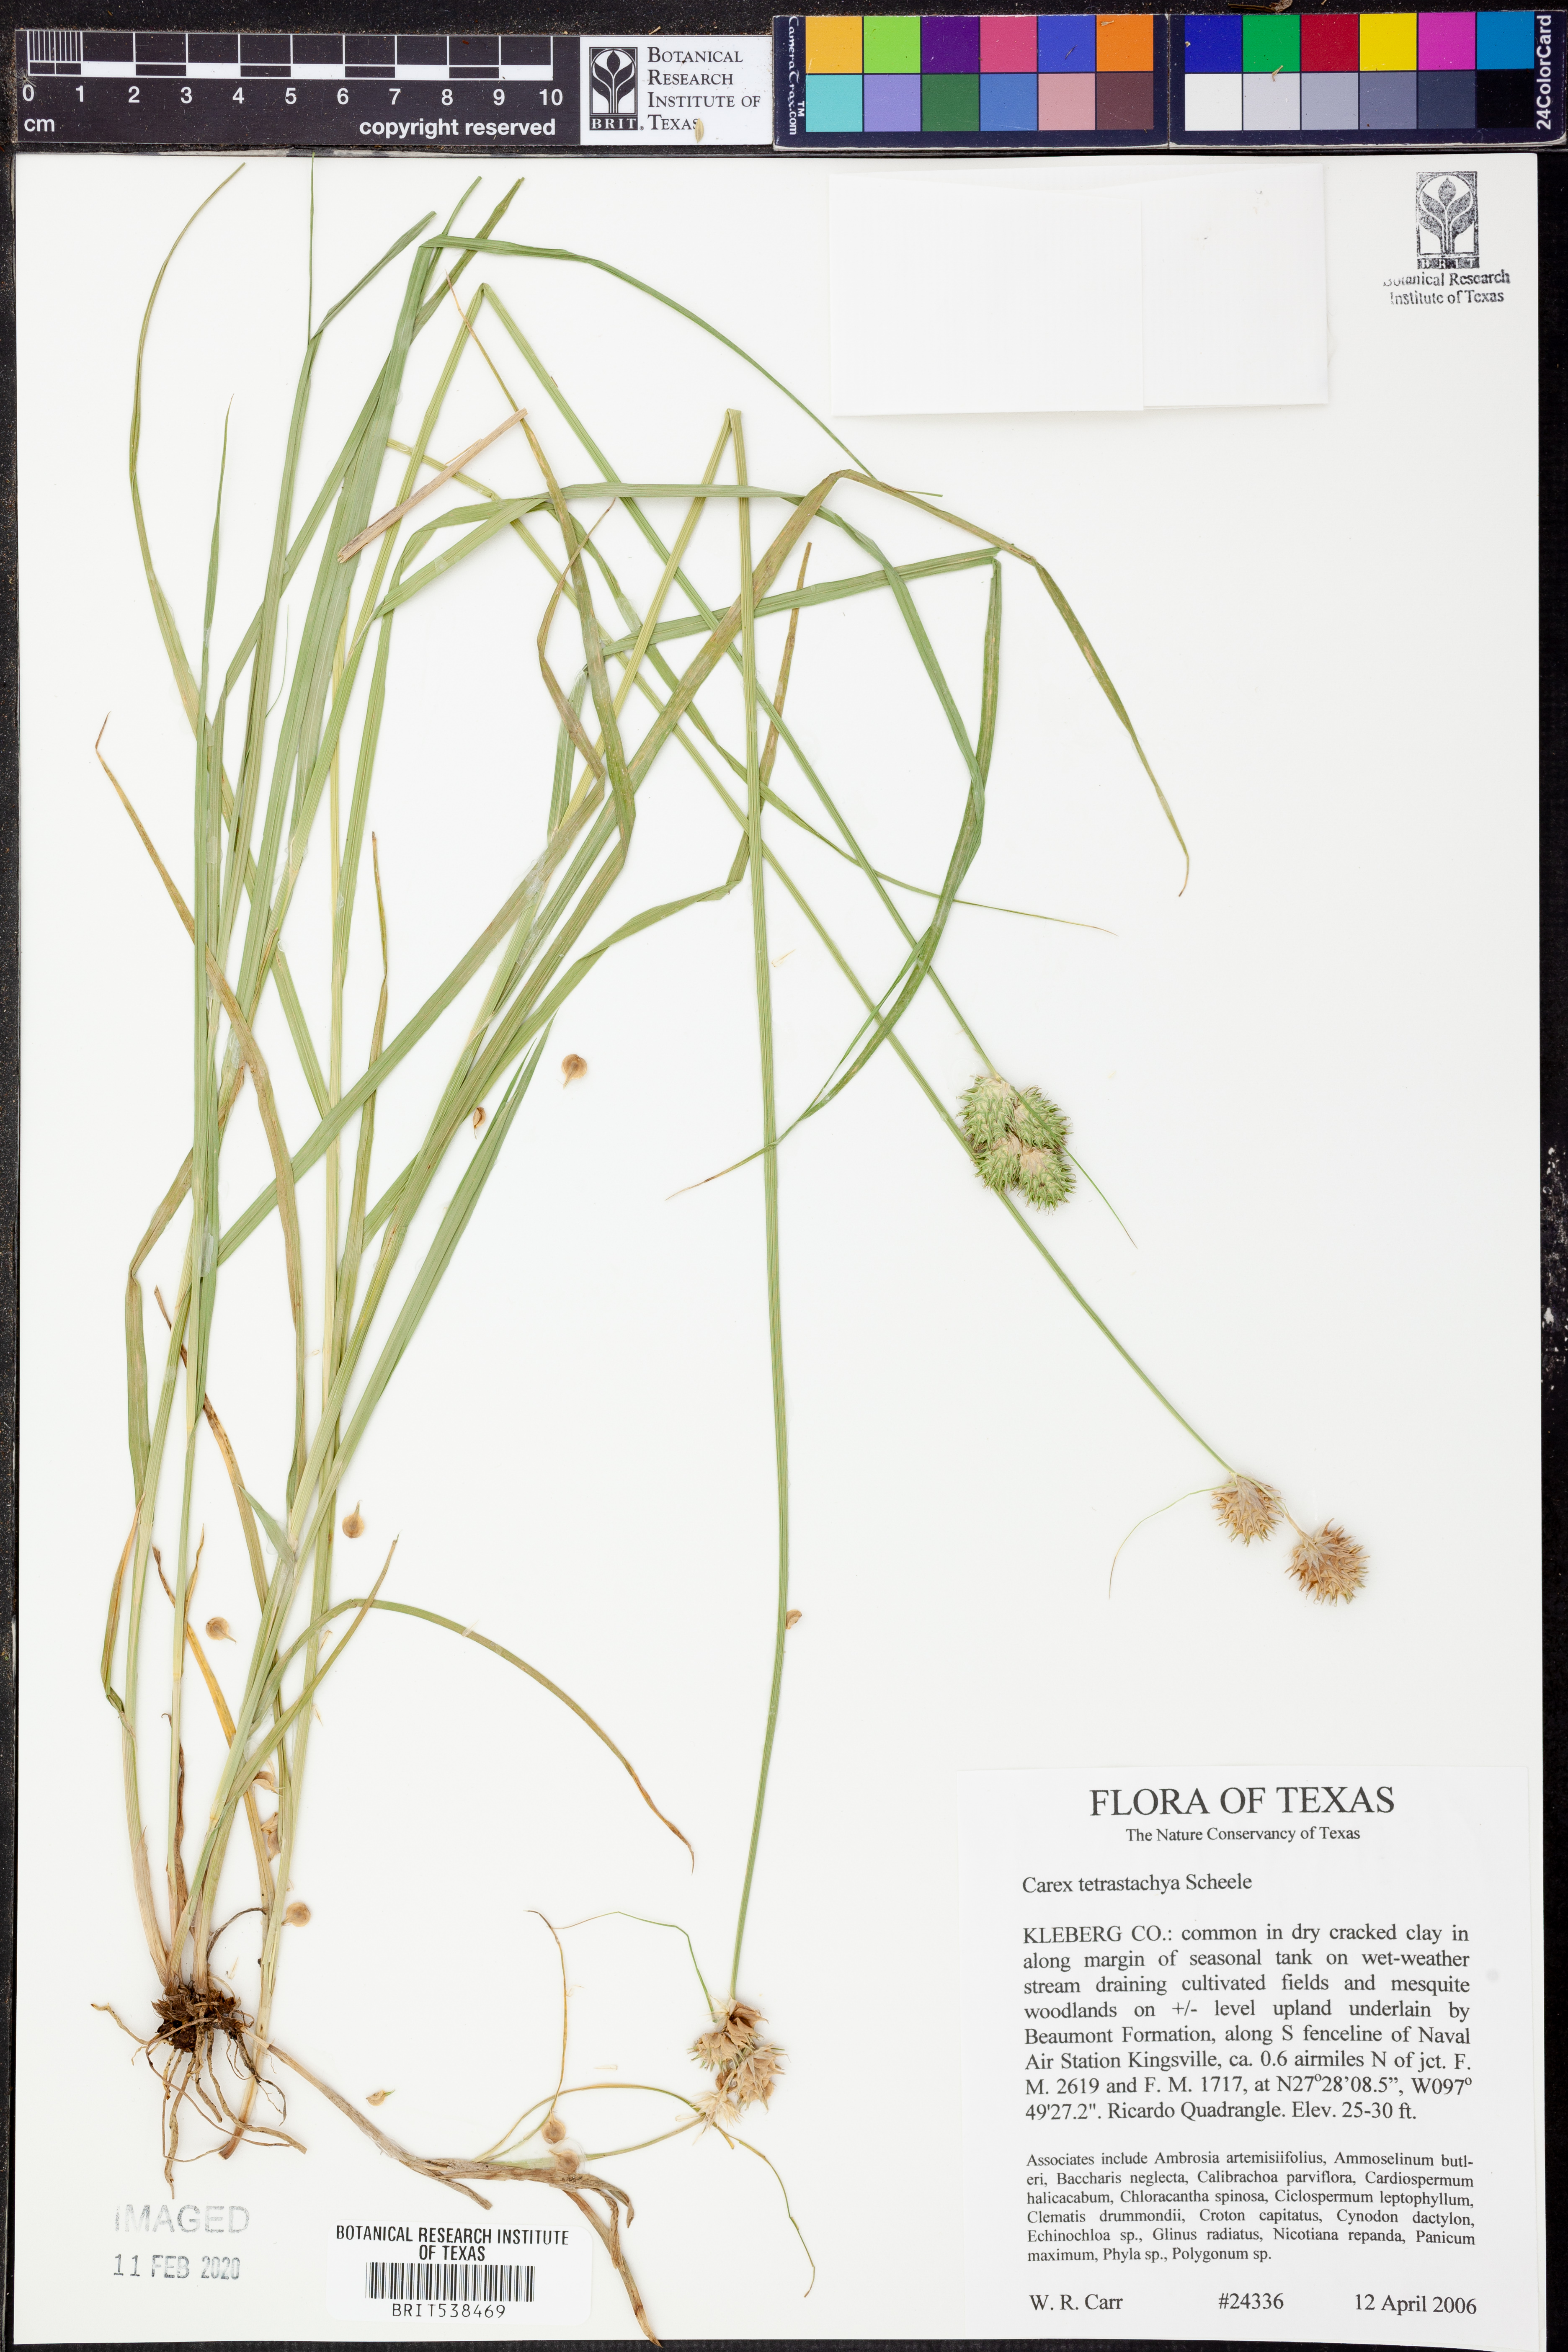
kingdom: Plantae
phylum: Tracheophyta
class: Liliopsida
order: Poales
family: Cyperaceae
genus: Carex
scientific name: Carex tetrastachya
